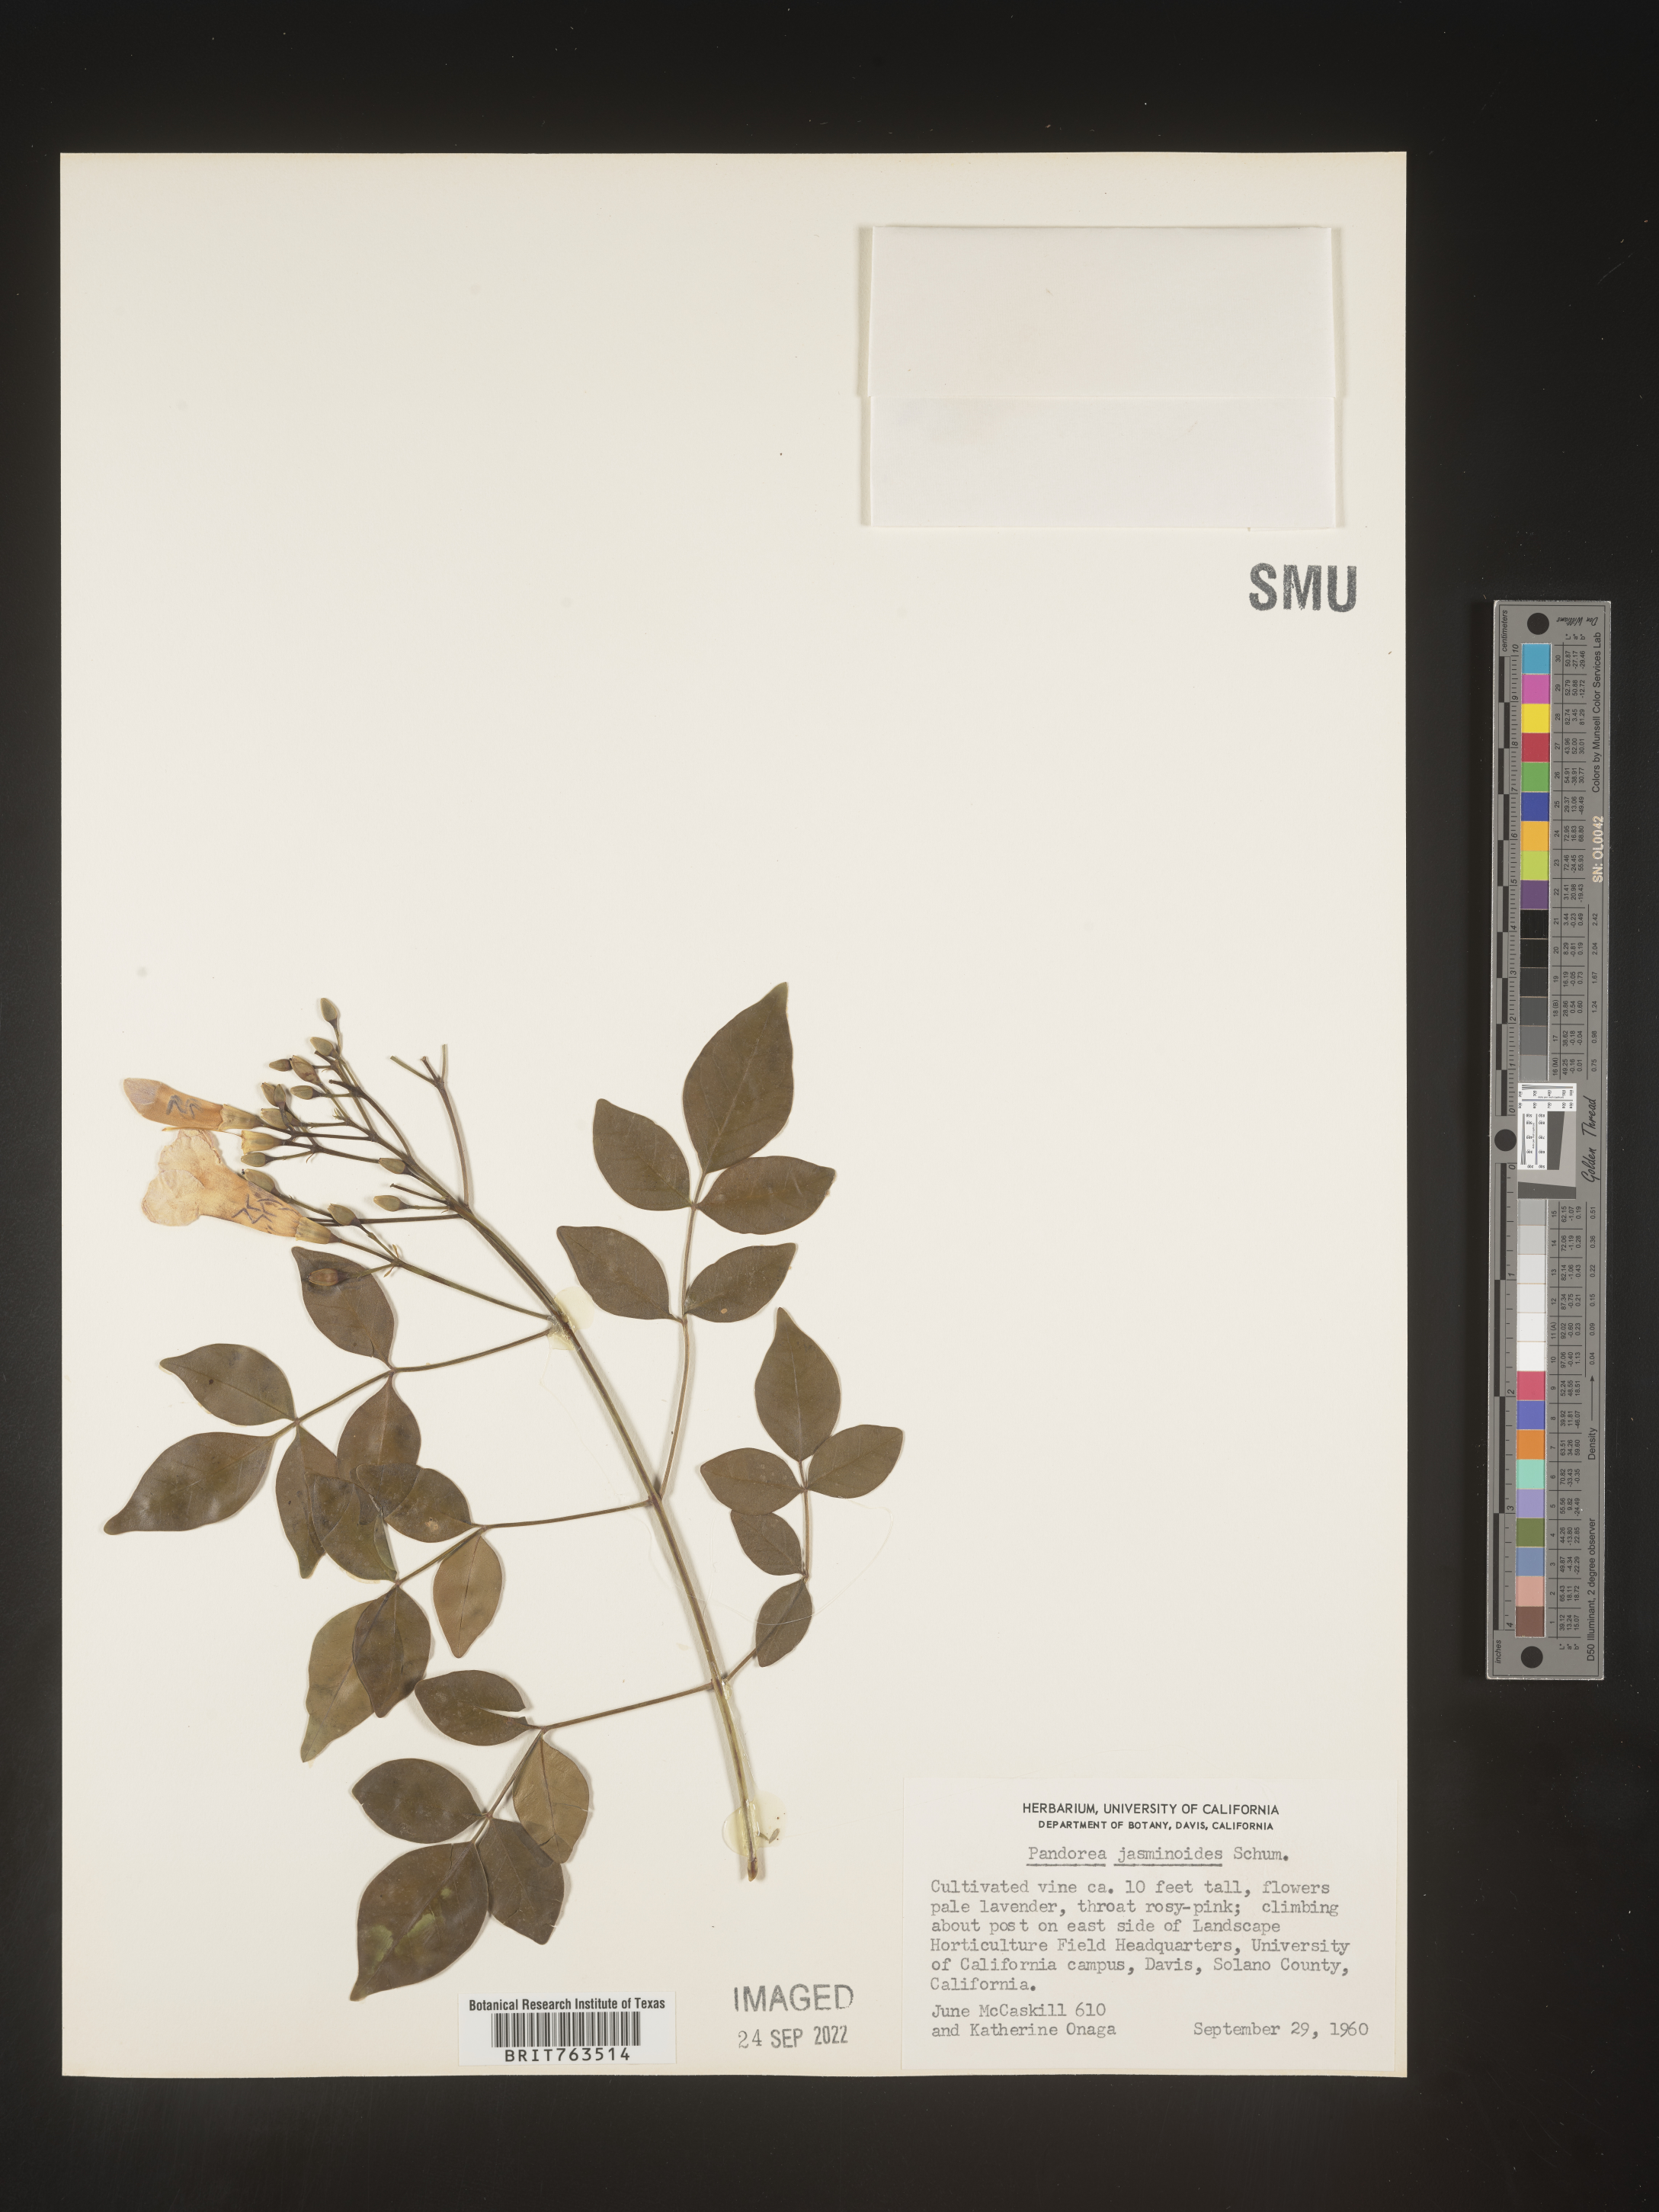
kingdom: Plantae
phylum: Tracheophyta
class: Magnoliopsida
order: Lamiales
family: Bignoniaceae
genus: Pandorea
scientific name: Pandorea
